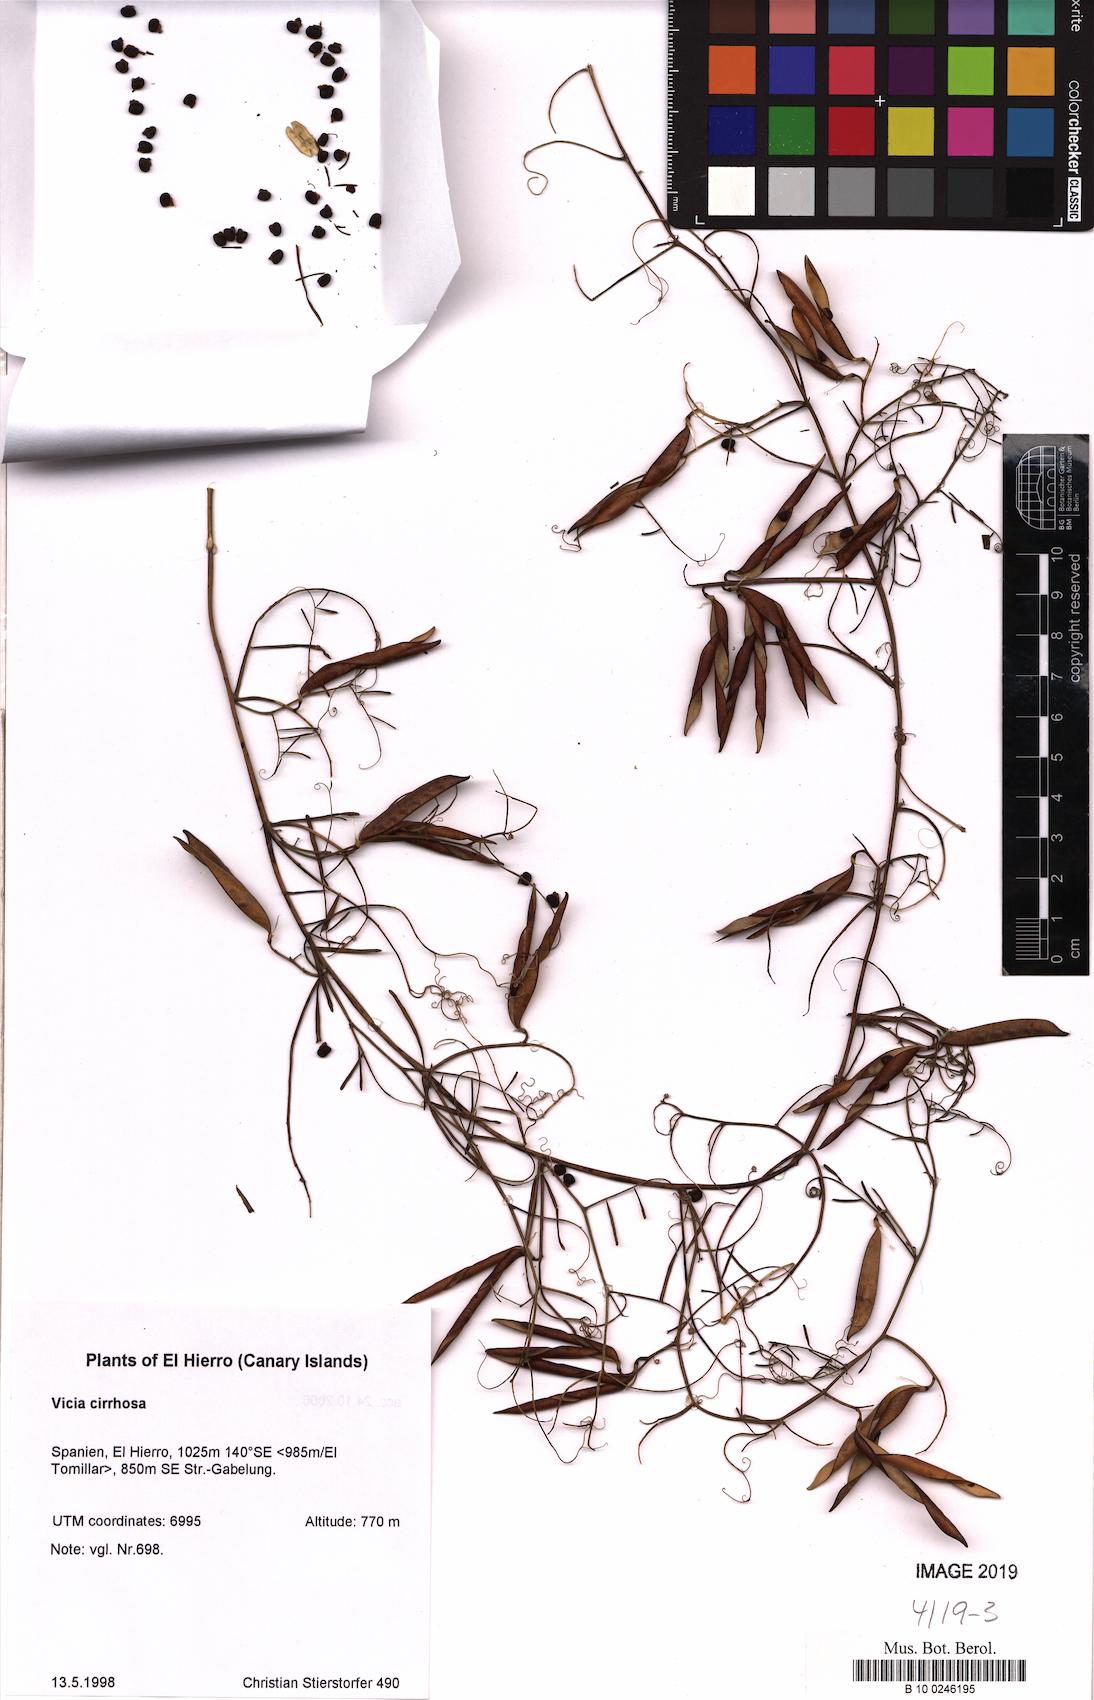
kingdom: Plantae
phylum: Tracheophyta
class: Magnoliopsida
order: Fabales
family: Fabaceae
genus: Vicia
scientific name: Vicia aphylla
